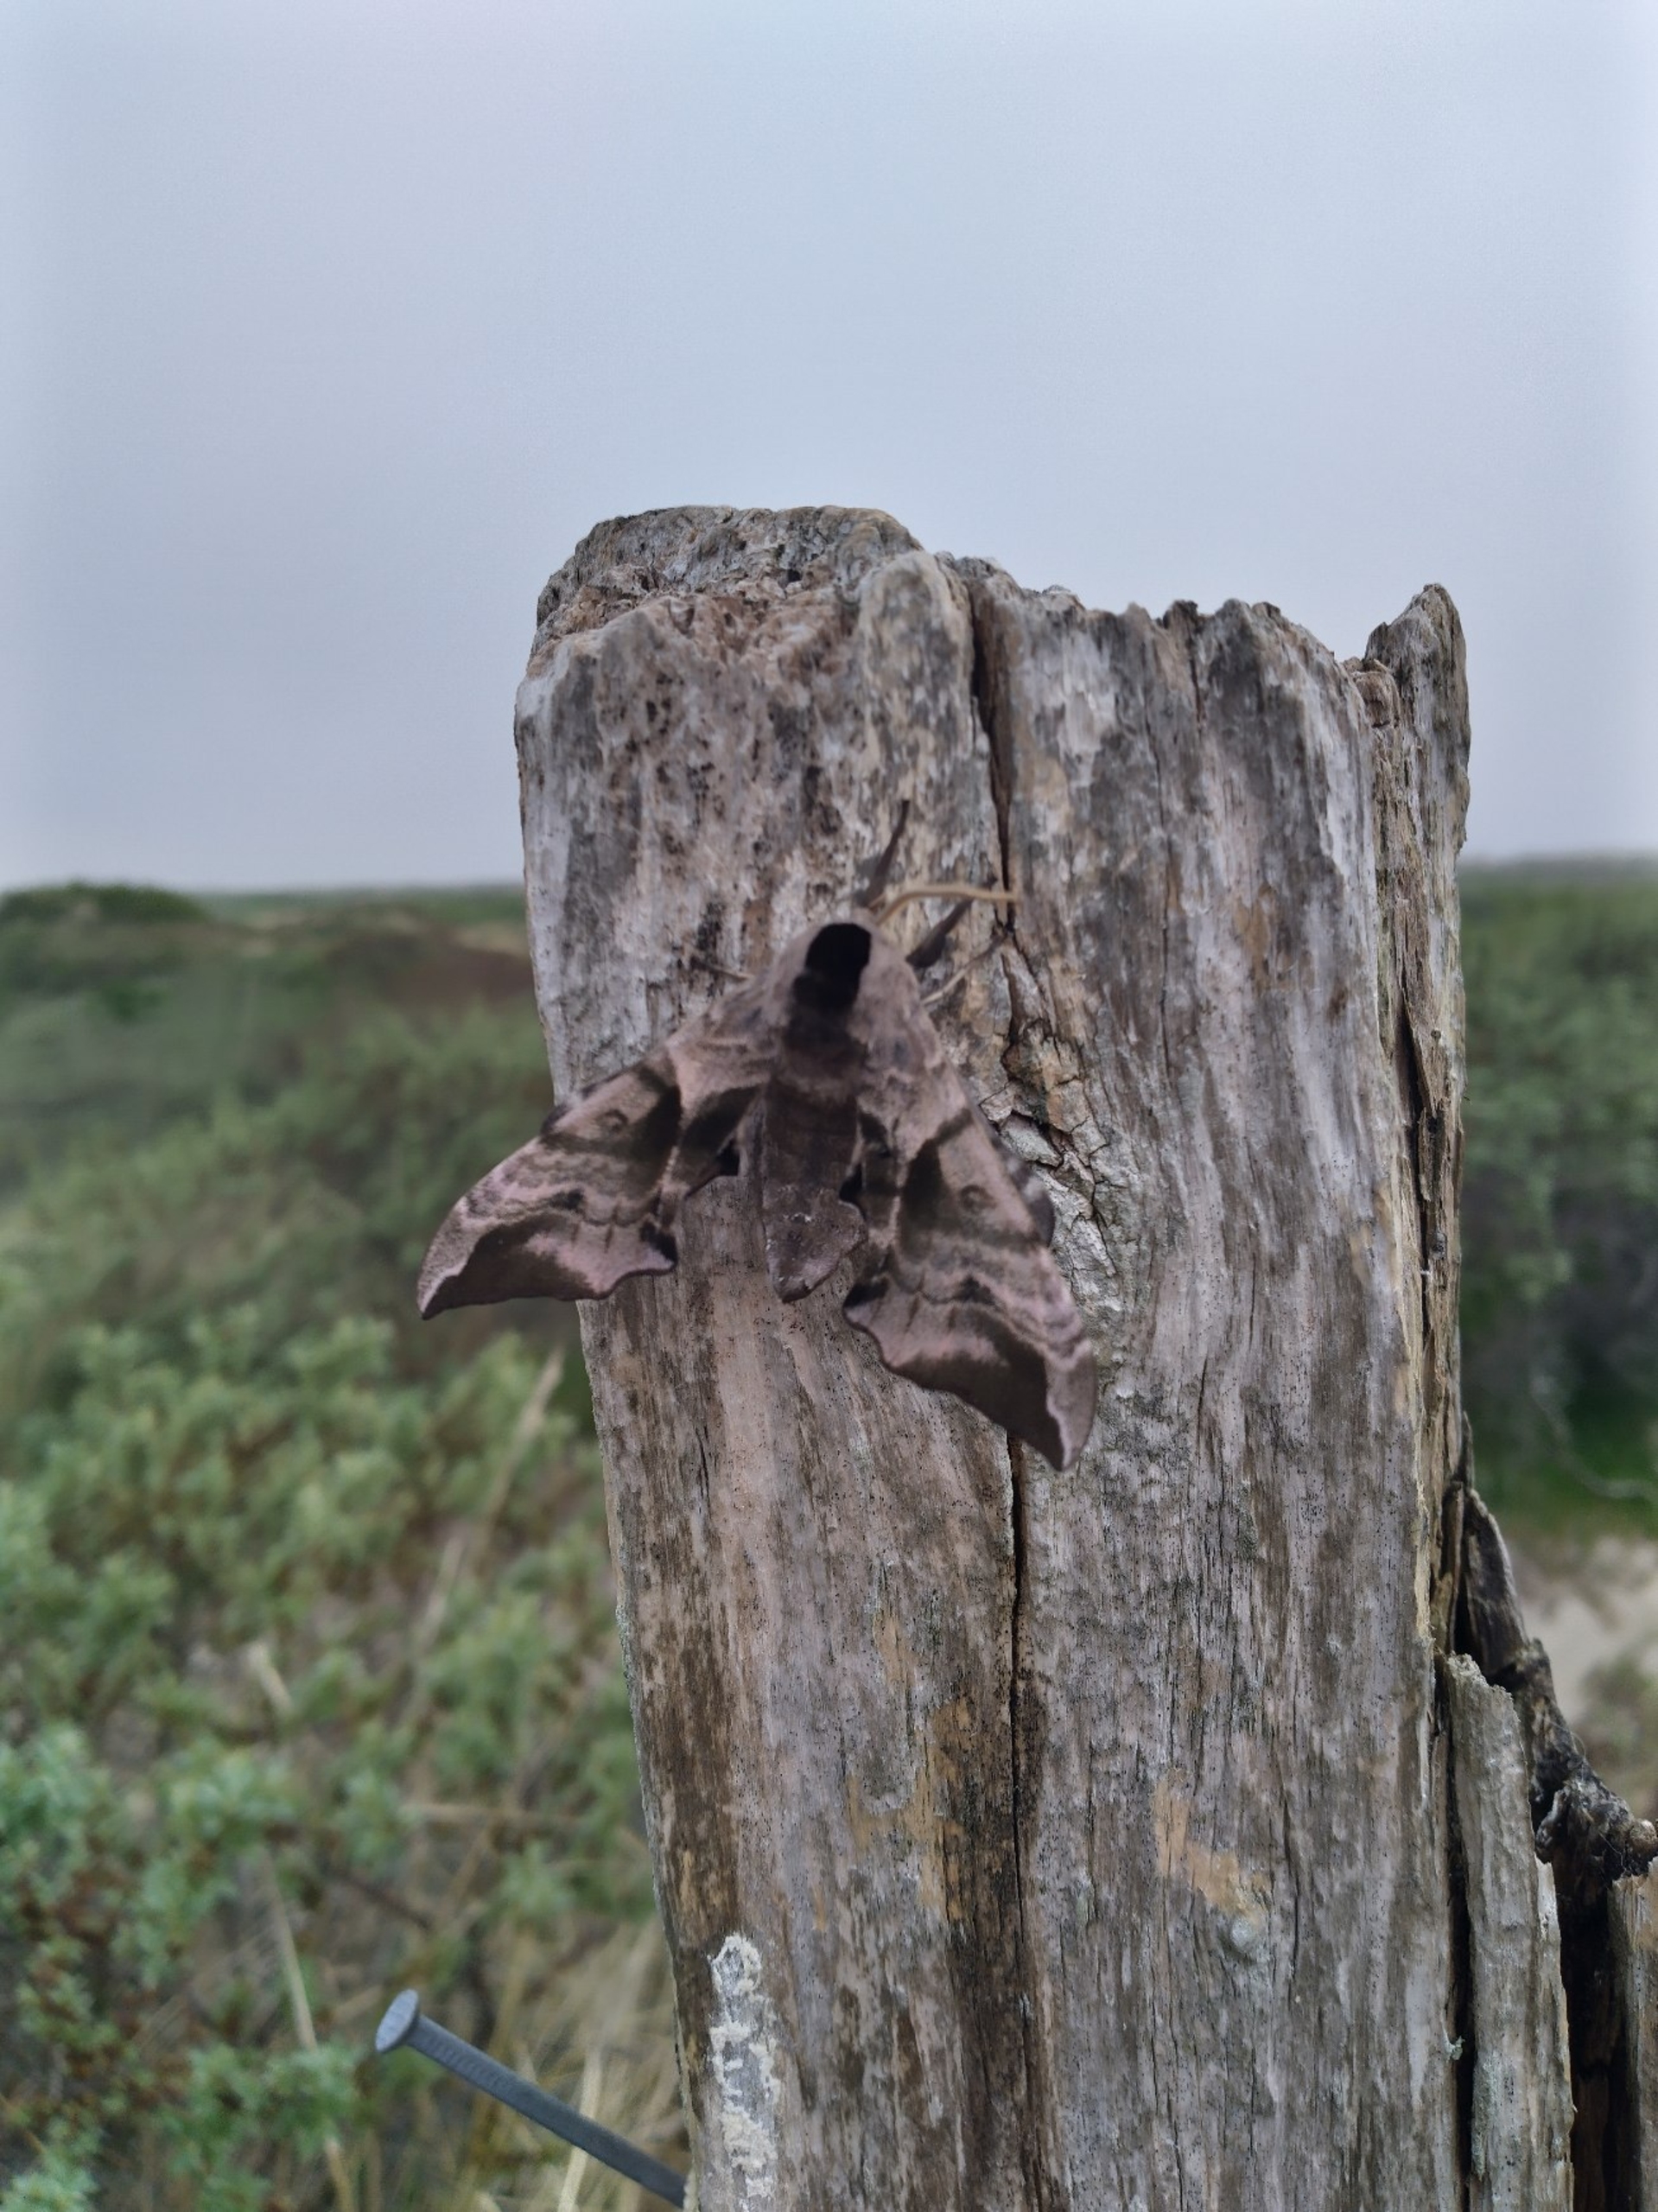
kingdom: Animalia
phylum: Arthropoda
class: Insecta
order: Lepidoptera
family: Sphingidae
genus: Smerinthus
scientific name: Smerinthus ocellata
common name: Aftenpåfugleøje
